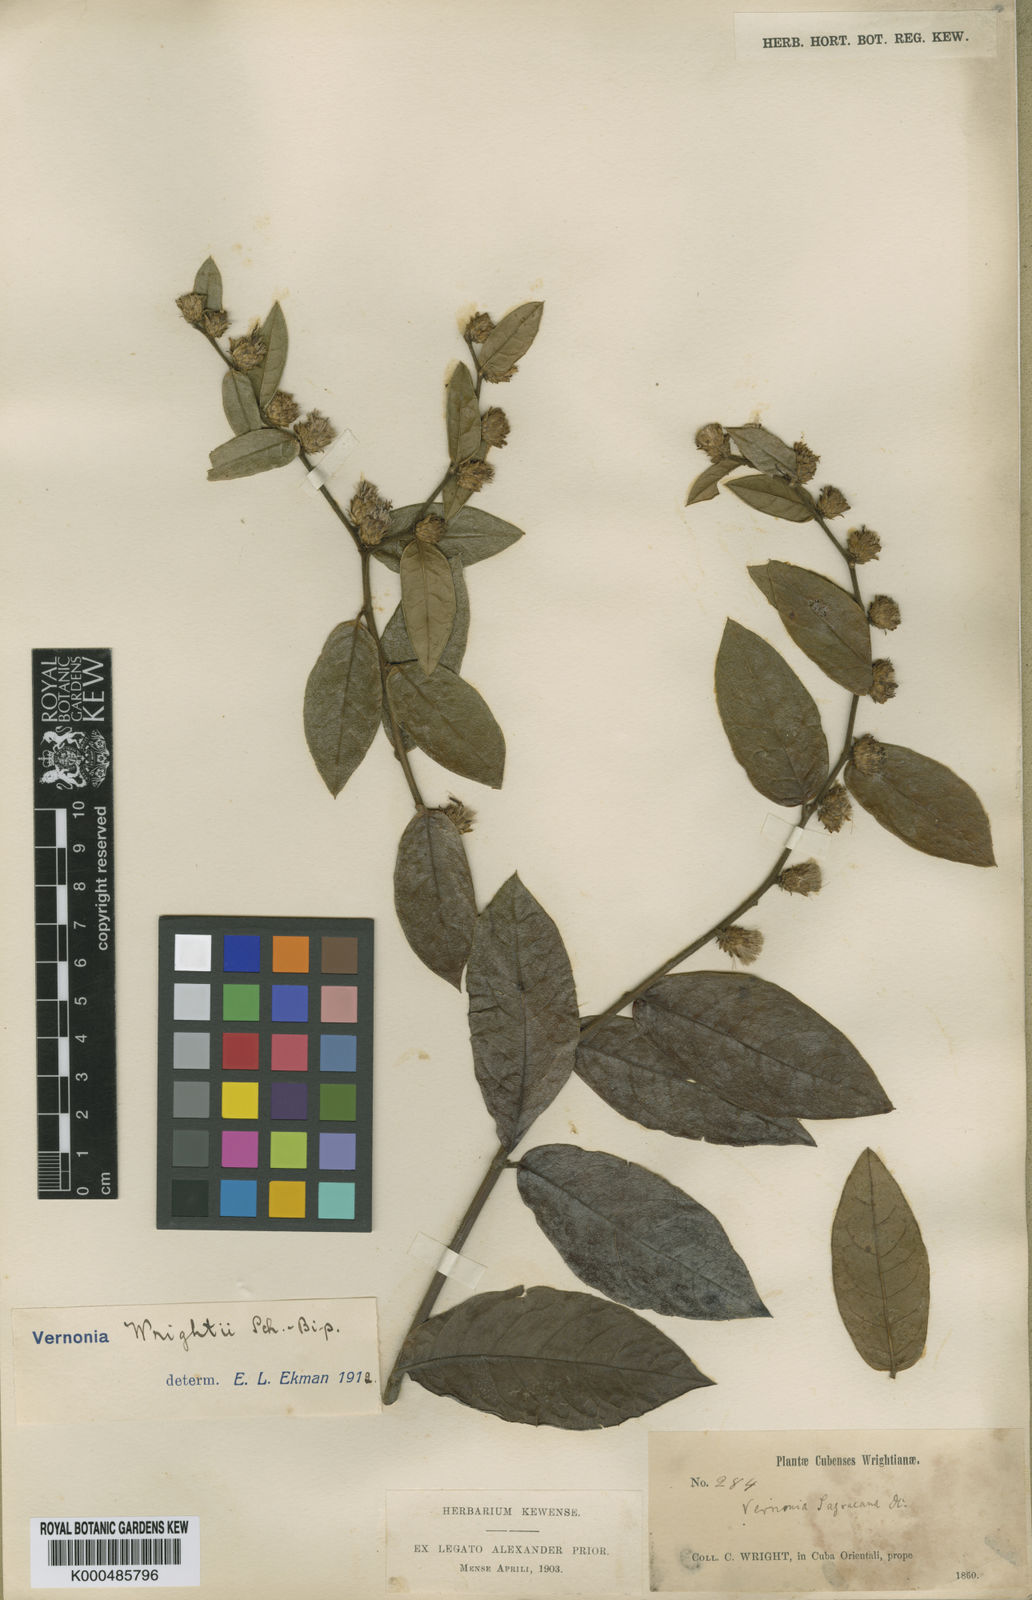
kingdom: Plantae
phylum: Tracheophyta
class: Magnoliopsida
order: Asterales
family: Asteraceae
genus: Lepidaploa
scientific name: Lepidaploa wrightii
